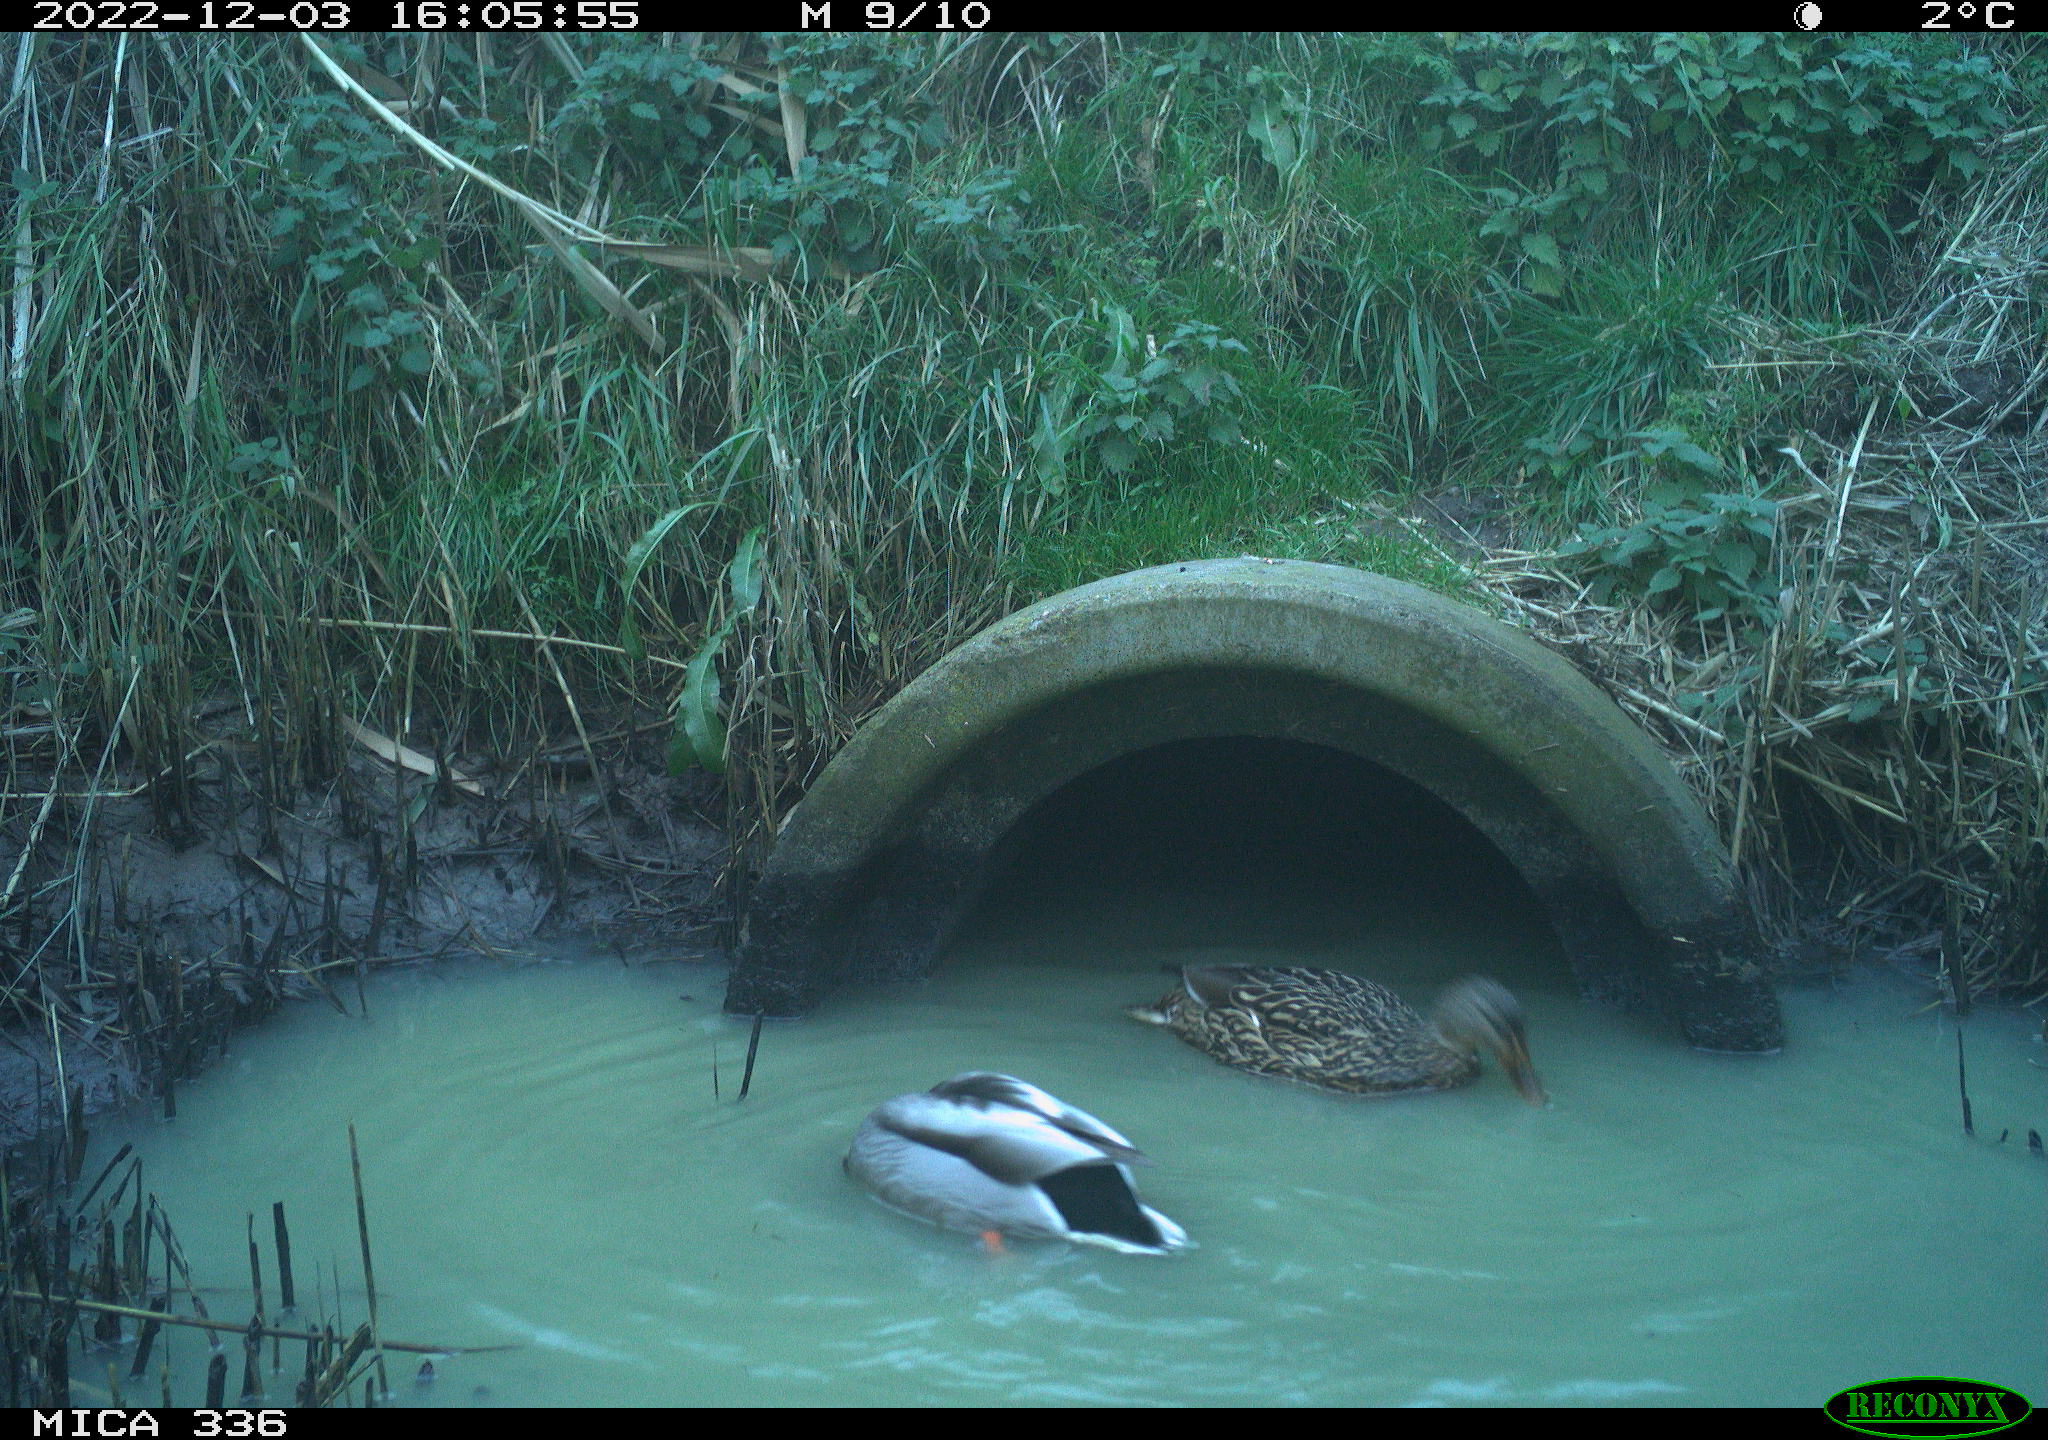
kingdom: Animalia
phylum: Chordata
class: Aves
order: Anseriformes
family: Anatidae
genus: Anas
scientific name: Anas
